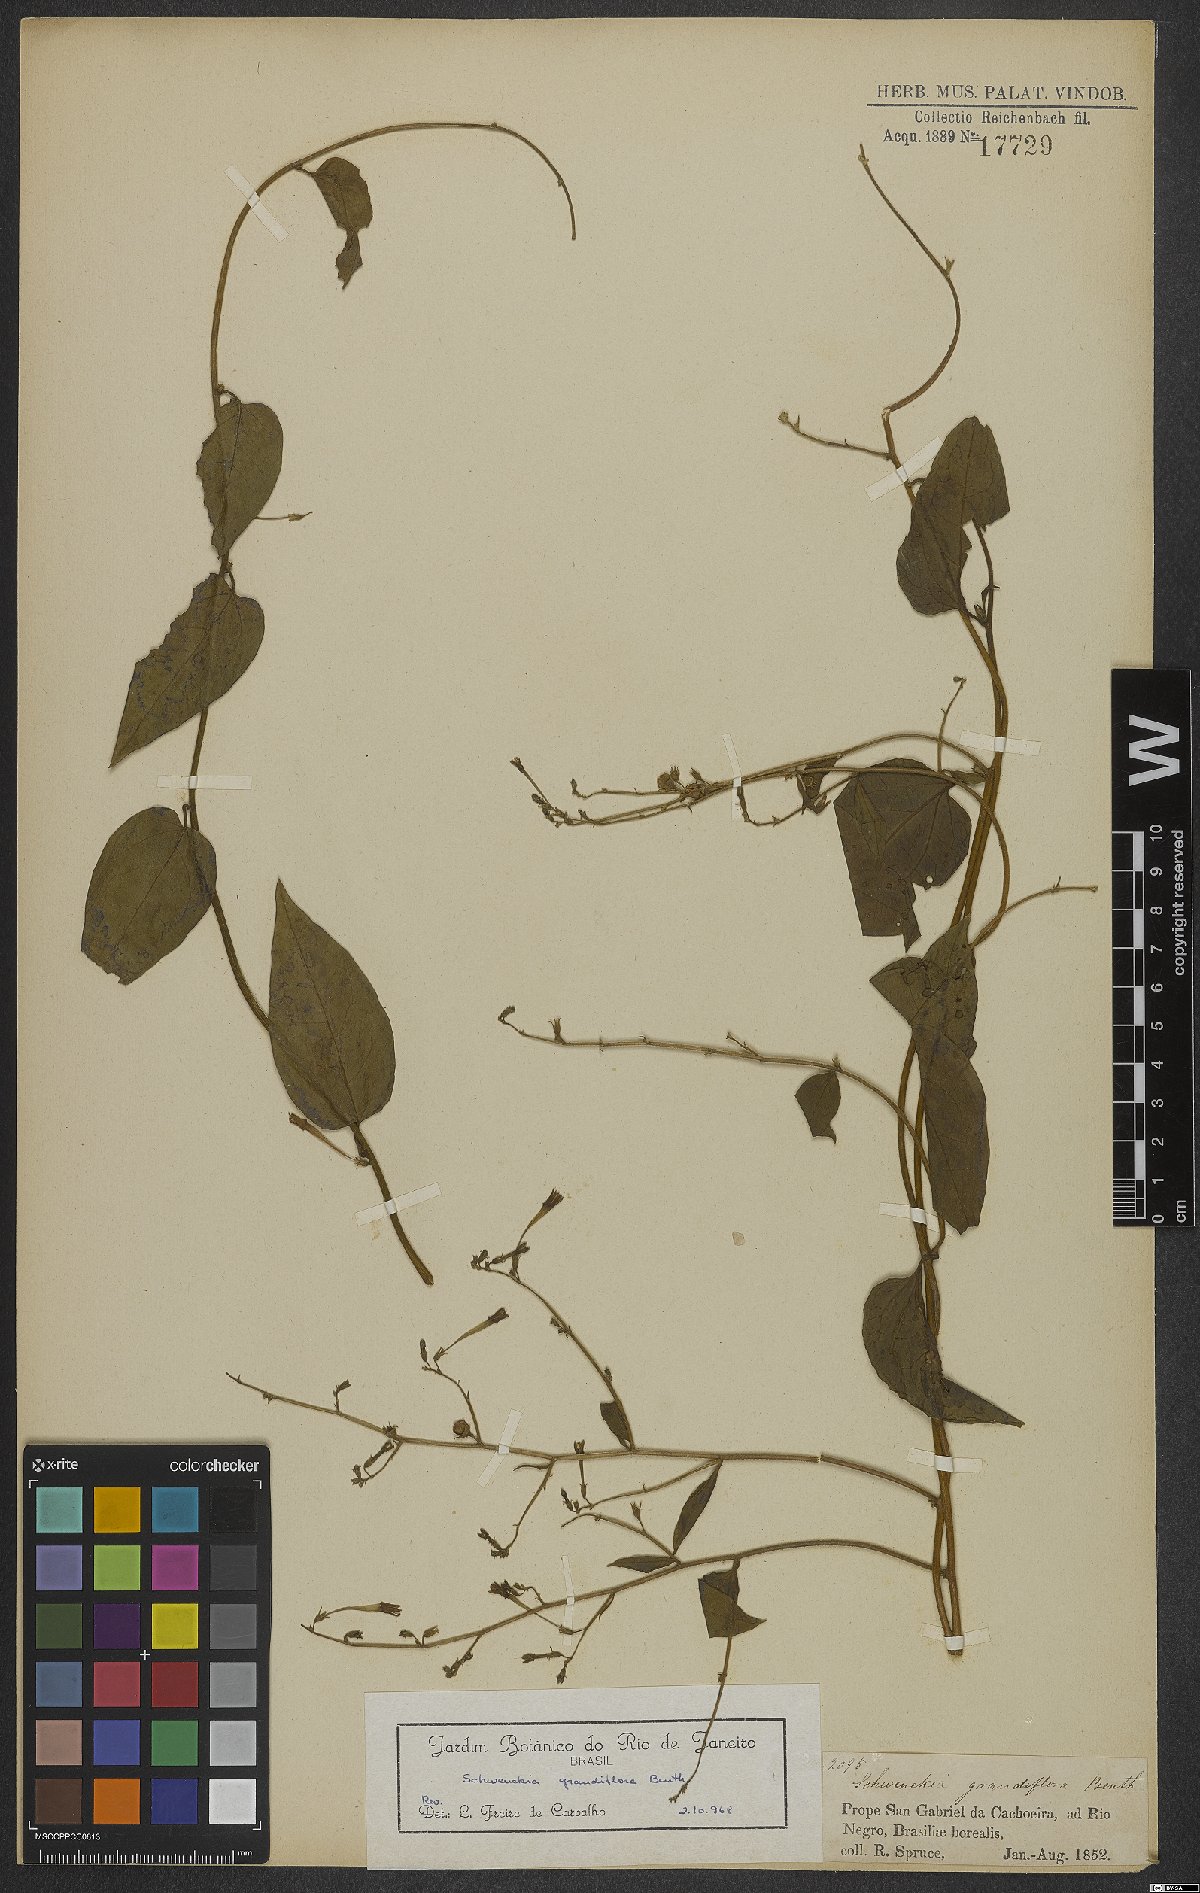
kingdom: Plantae
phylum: Tracheophyta
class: Magnoliopsida
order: Solanales
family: Solanaceae
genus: Schwenckia
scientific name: Schwenckia grandiflora
